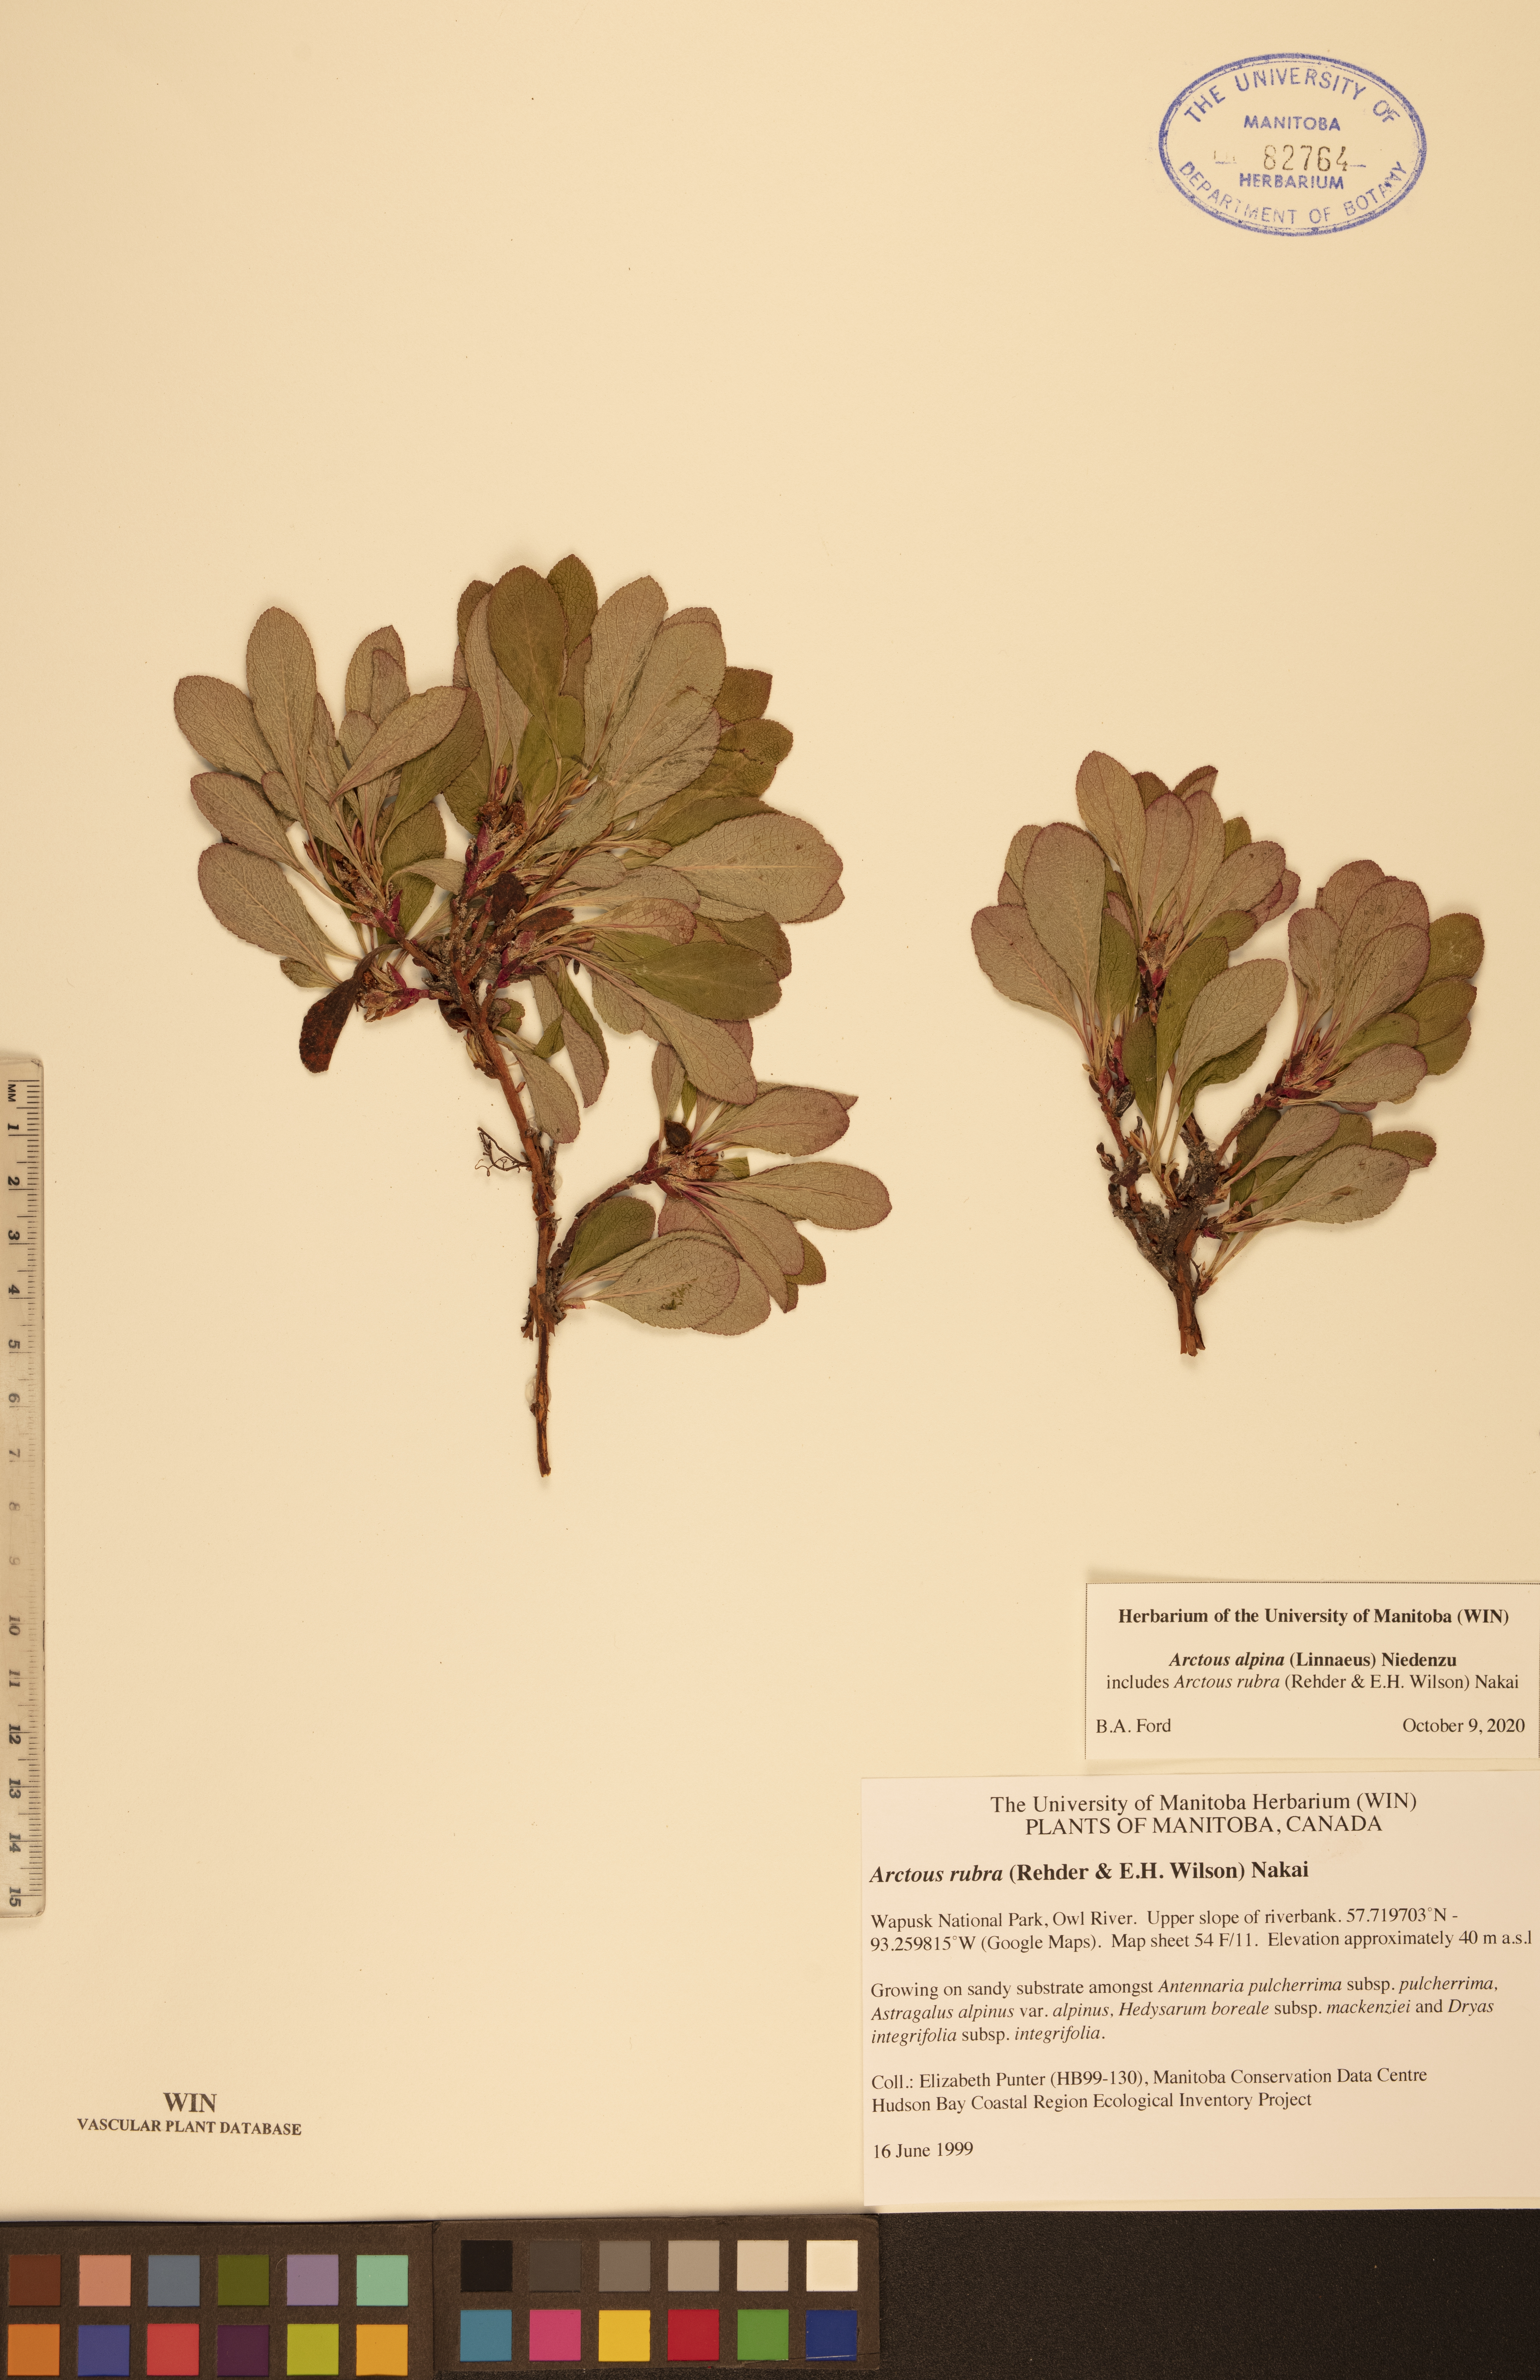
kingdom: Plantae
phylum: Tracheophyta
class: Magnoliopsida
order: Ericales
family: Ericaceae
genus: Arctostaphylos
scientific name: Arctostaphylos alpinus
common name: Alpine bearberry
